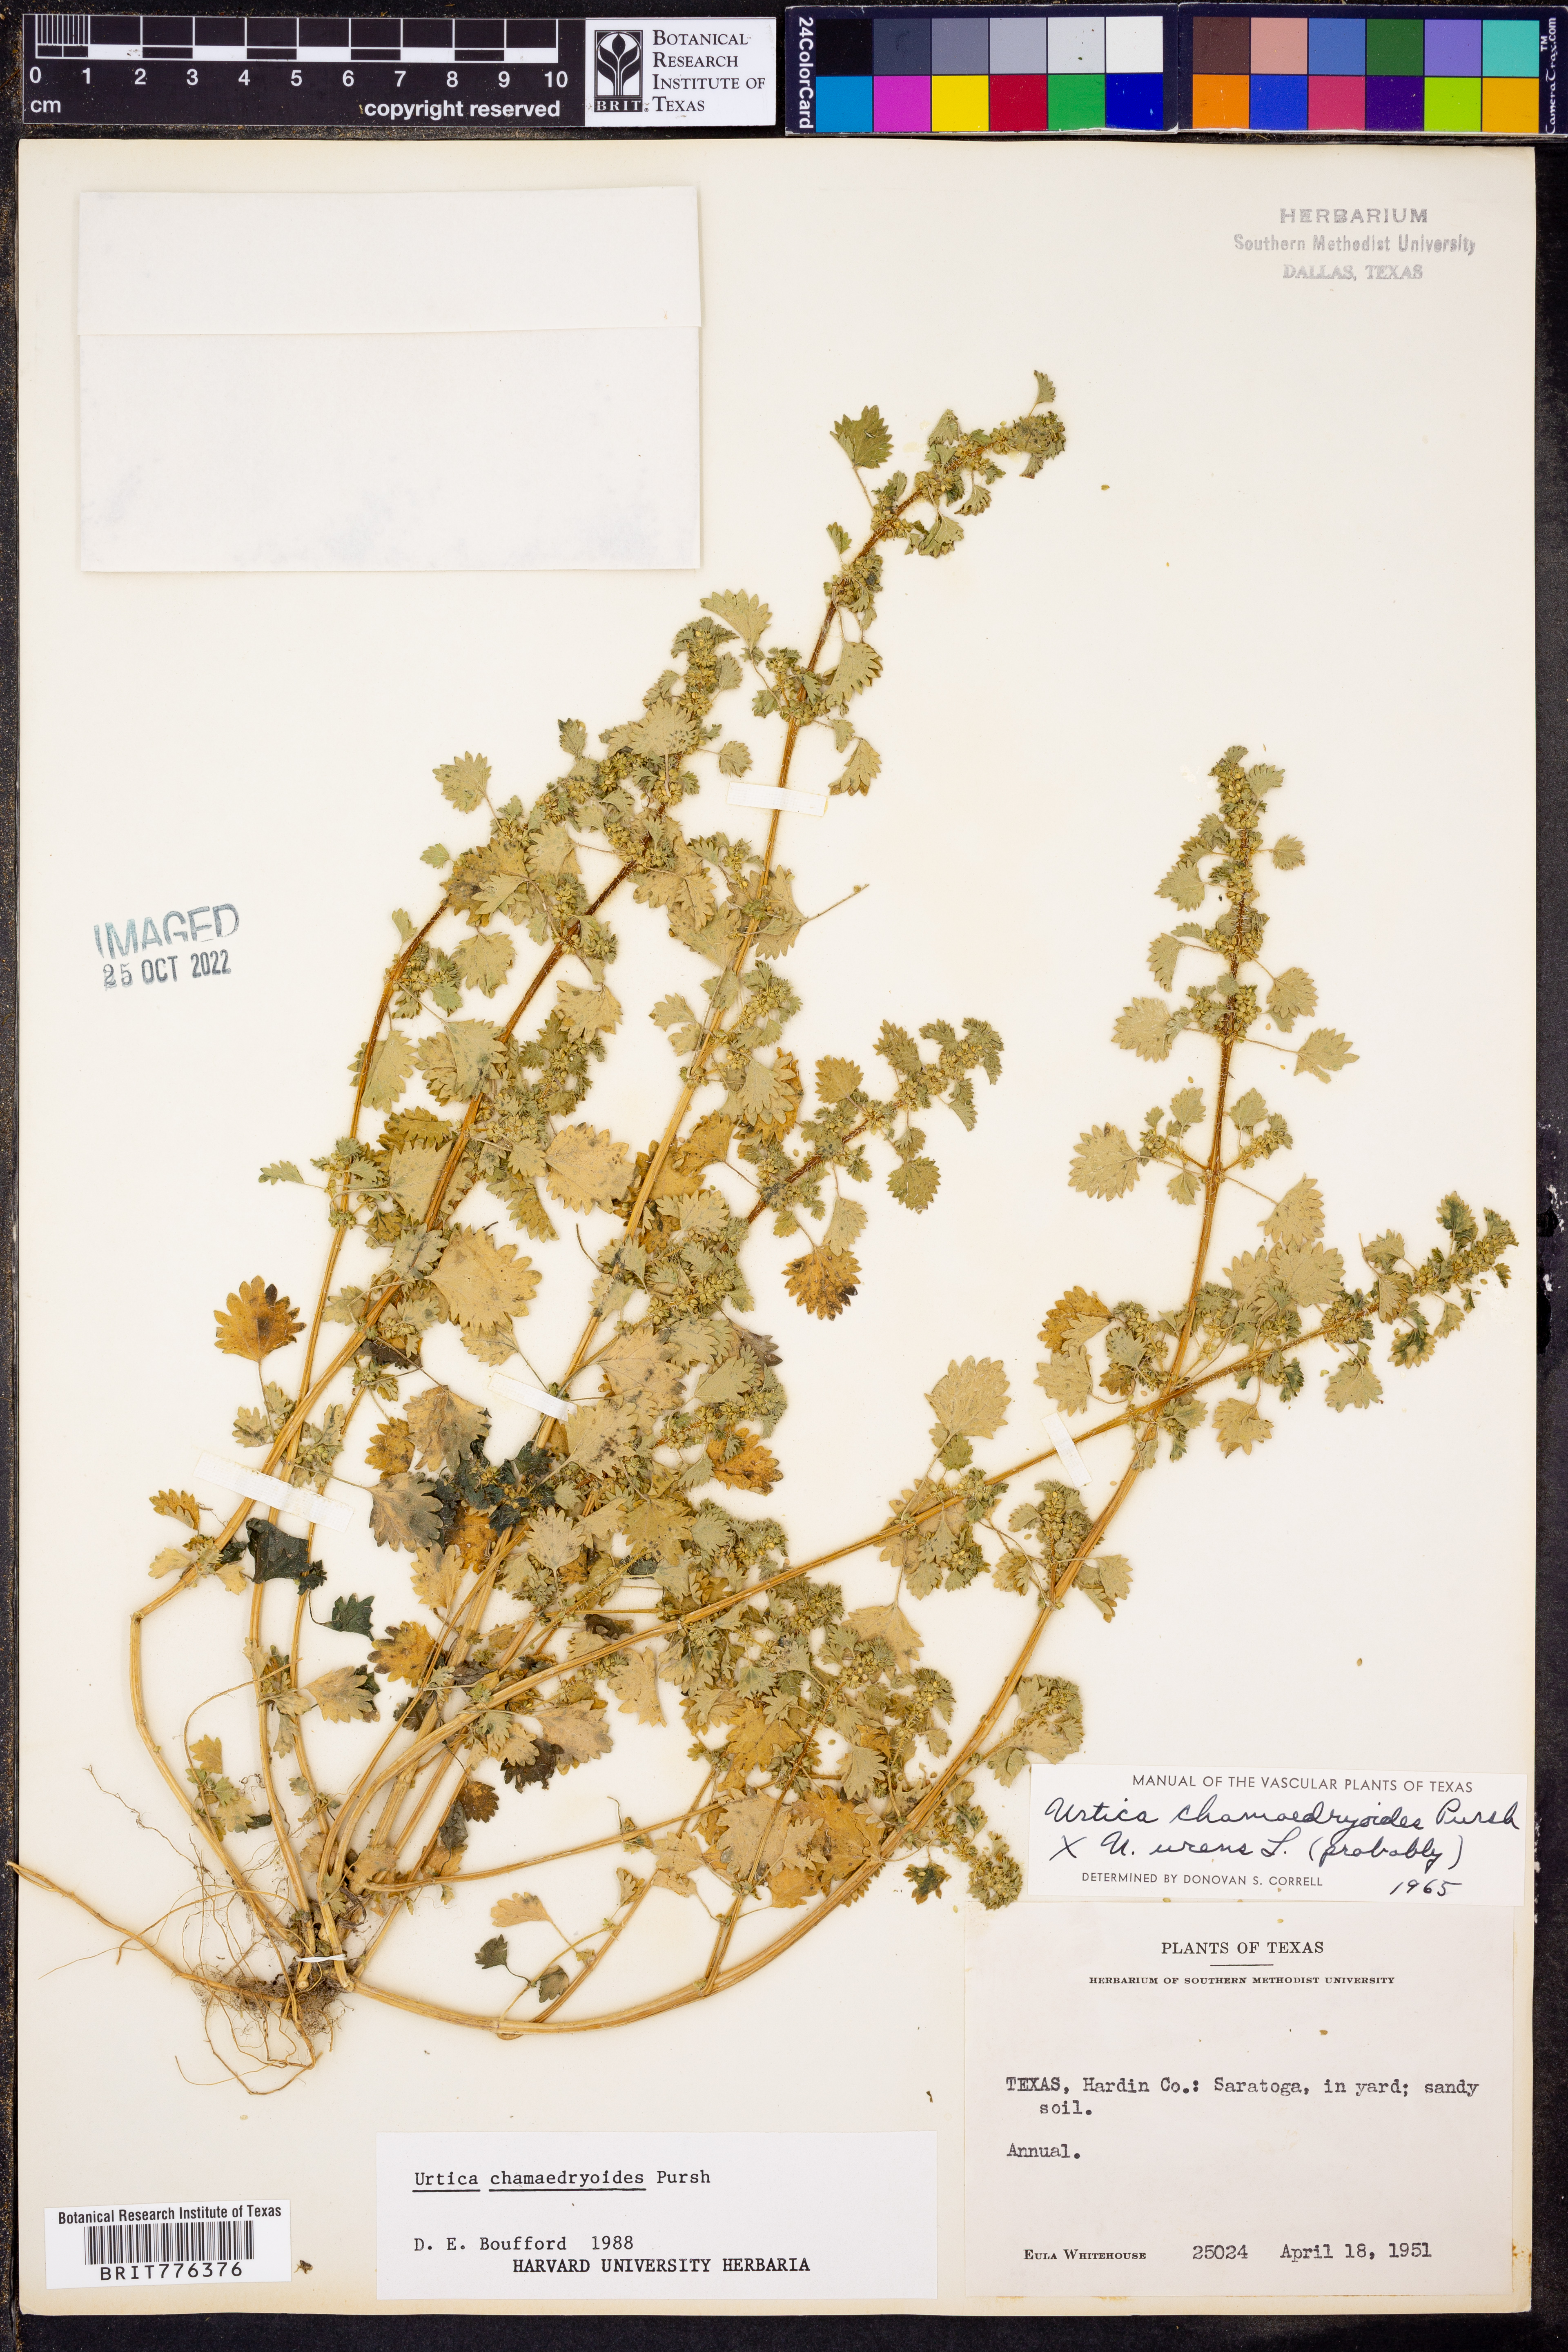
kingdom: Plantae
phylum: Tracheophyta
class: Magnoliopsida
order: Rosales
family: Urticaceae
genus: Urtica
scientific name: Urtica chamaedryoides
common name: Heart-leaf nettle
